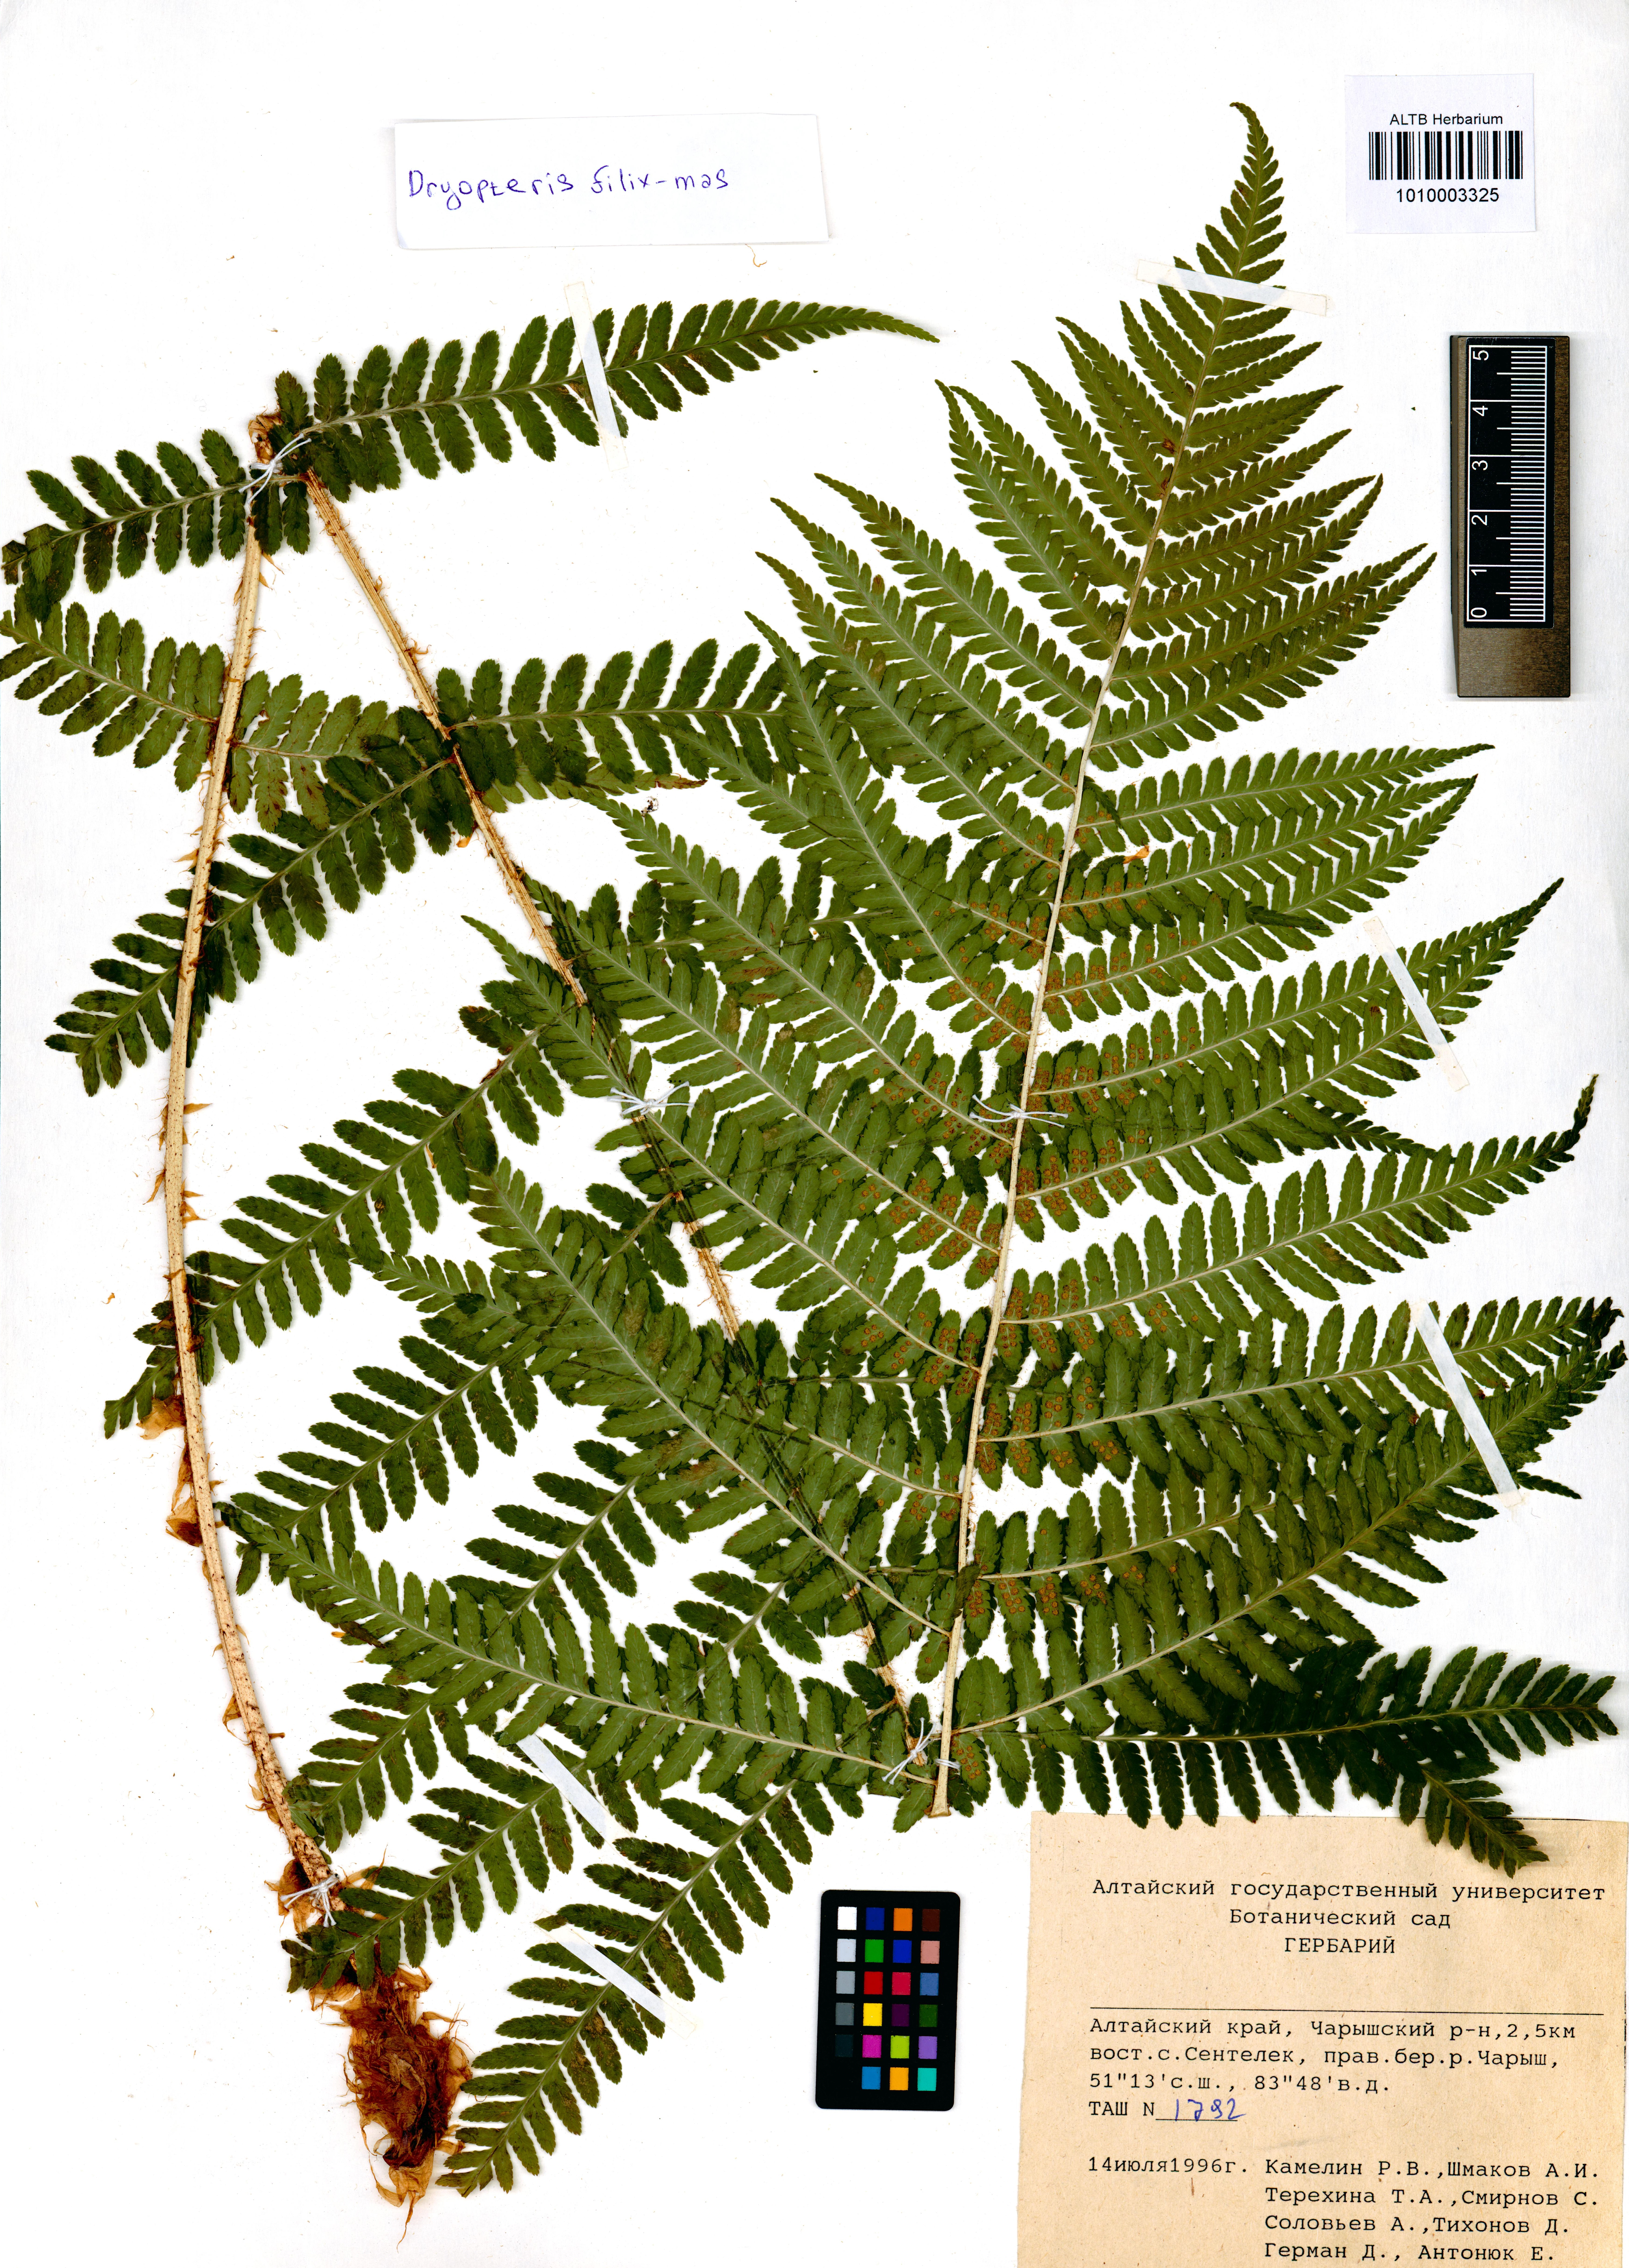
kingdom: Plantae
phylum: Tracheophyta
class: Polypodiopsida
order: Polypodiales
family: Dryopteridaceae
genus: Dryopteris
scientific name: Dryopteris filix-mas
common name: Male fern
